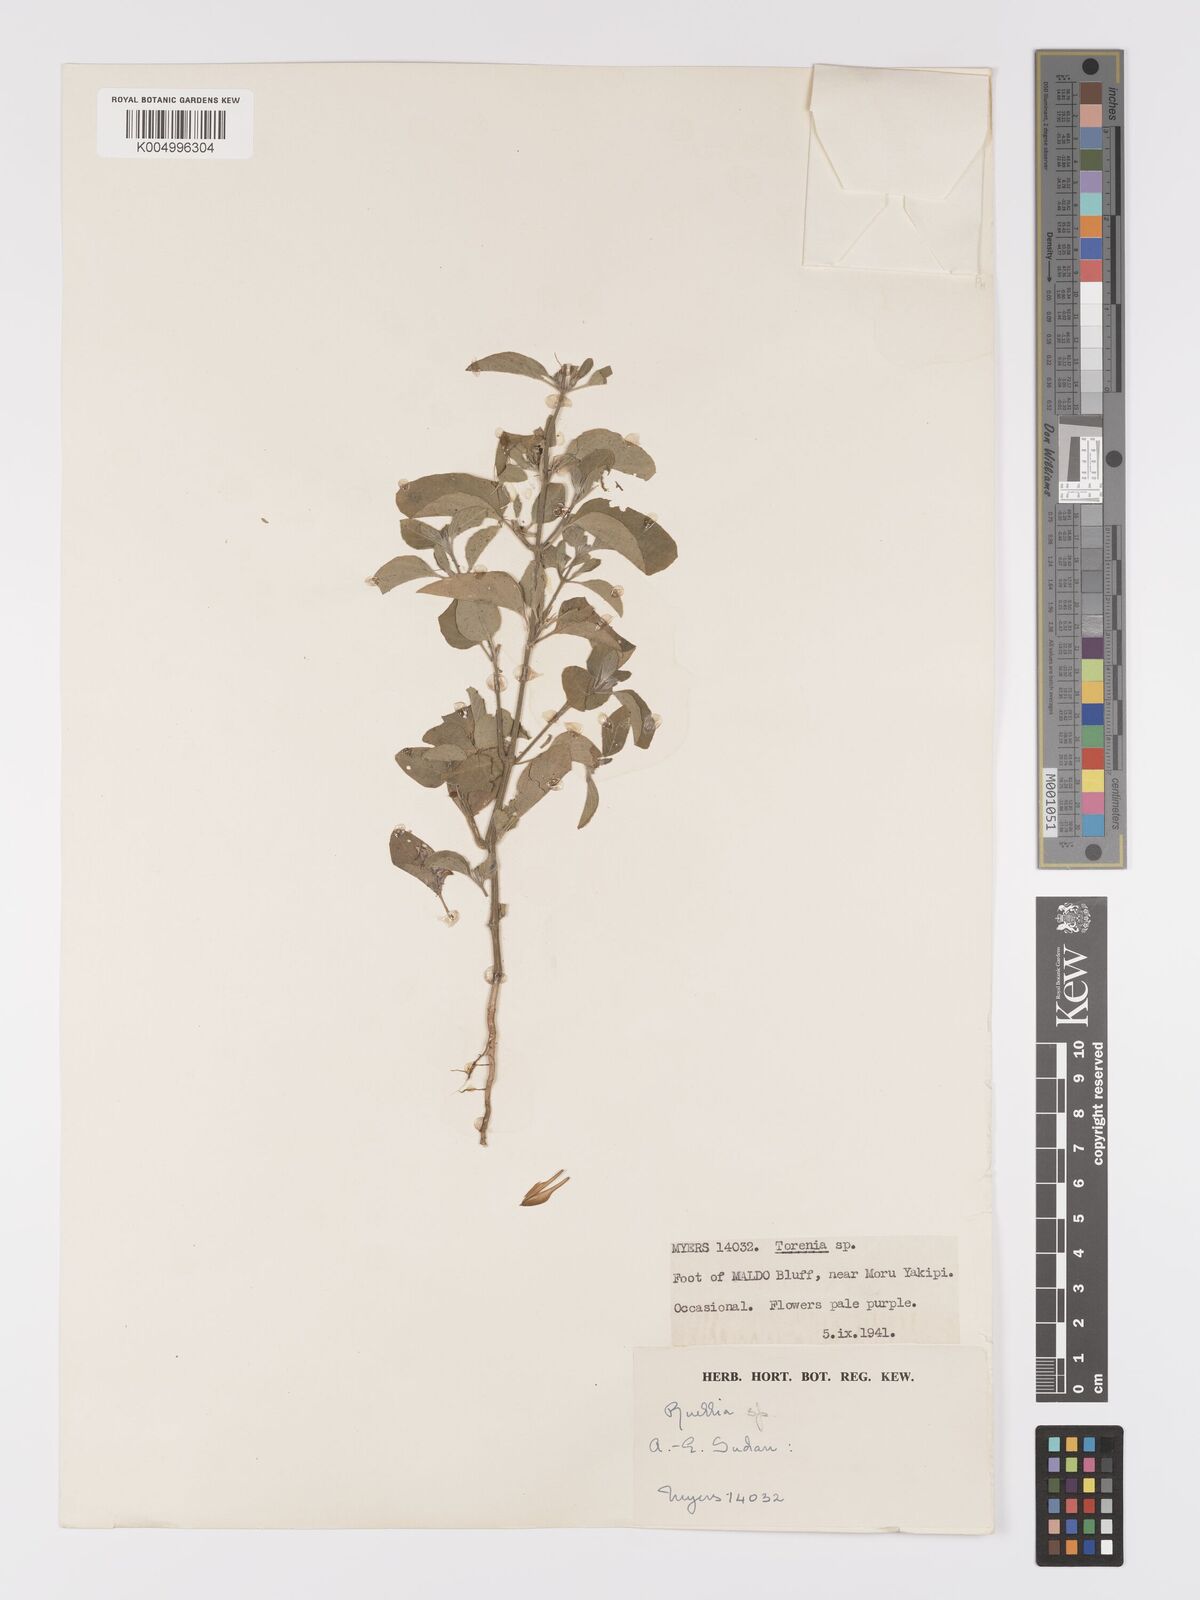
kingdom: Plantae
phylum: Tracheophyta
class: Magnoliopsida
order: Lamiales
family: Acanthaceae
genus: Ruellia
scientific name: Ruellia patula
